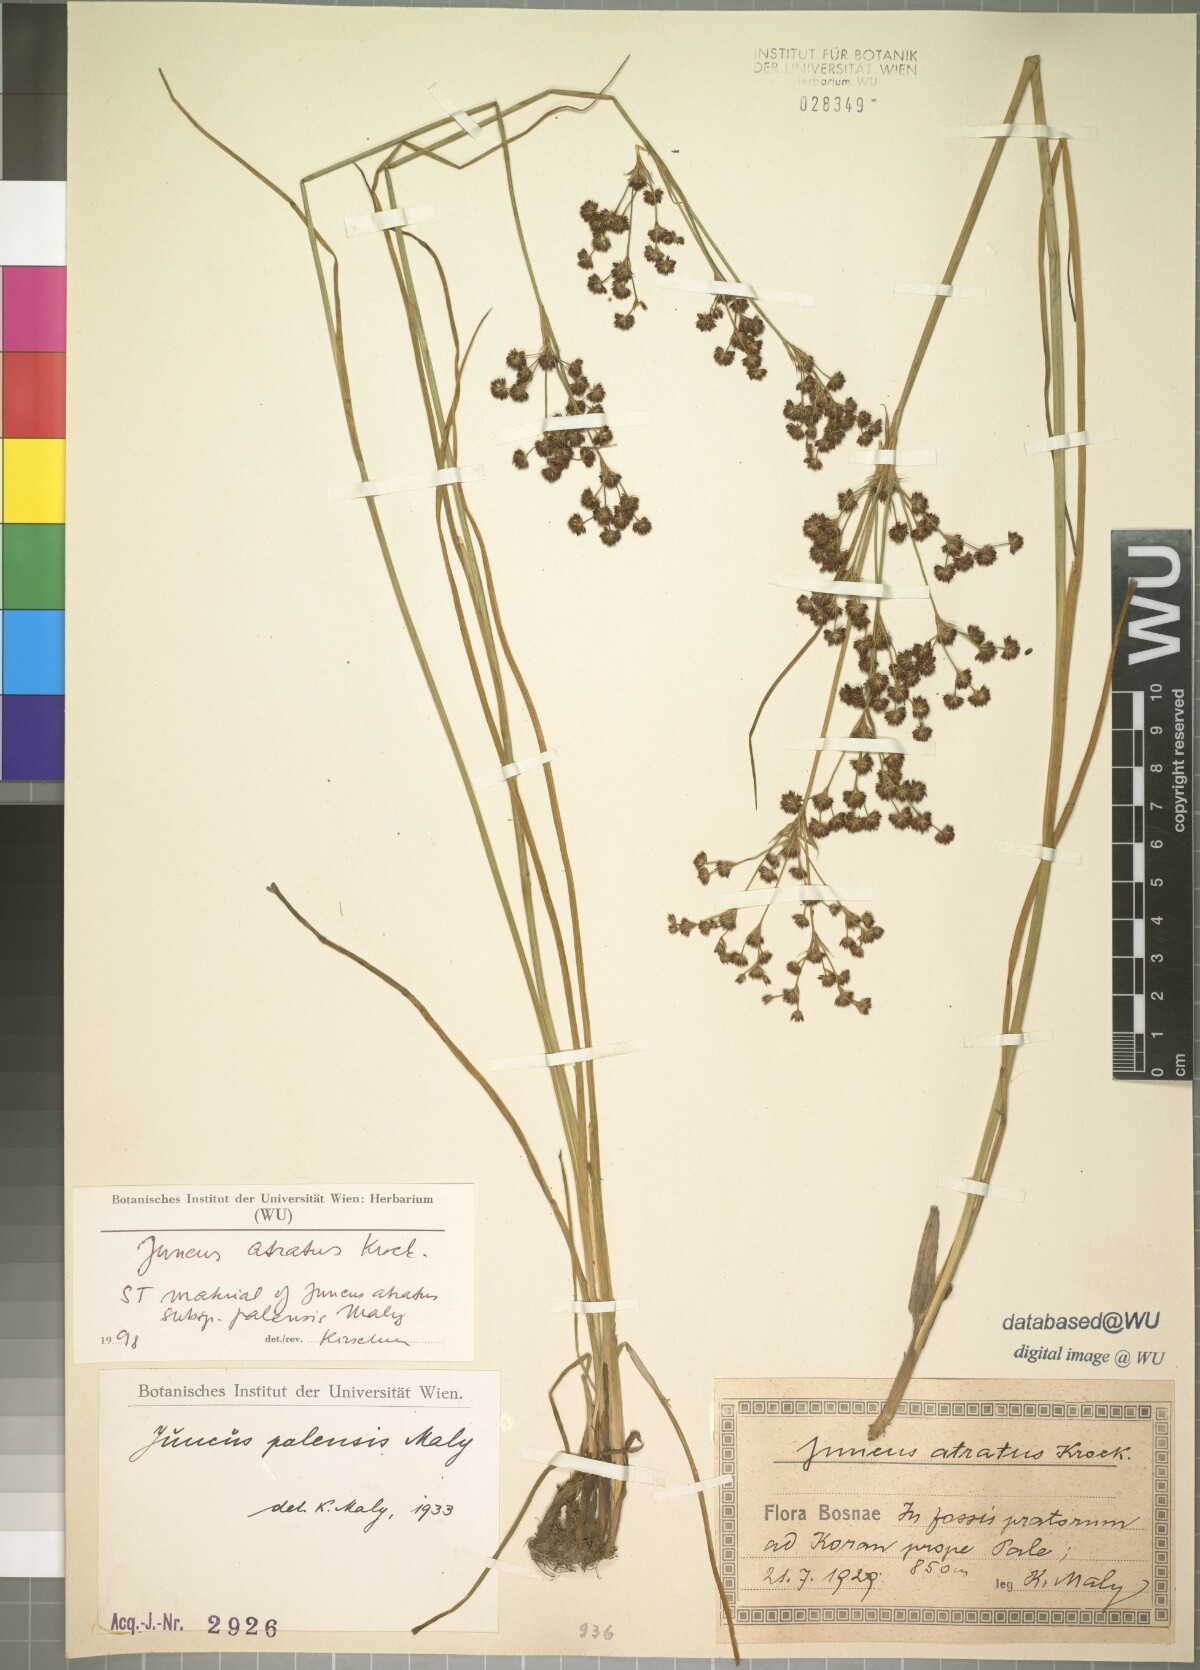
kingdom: Plantae
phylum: Tracheophyta
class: Liliopsida
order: Poales
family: Juncaceae
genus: Juncus
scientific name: Juncus thomasii
